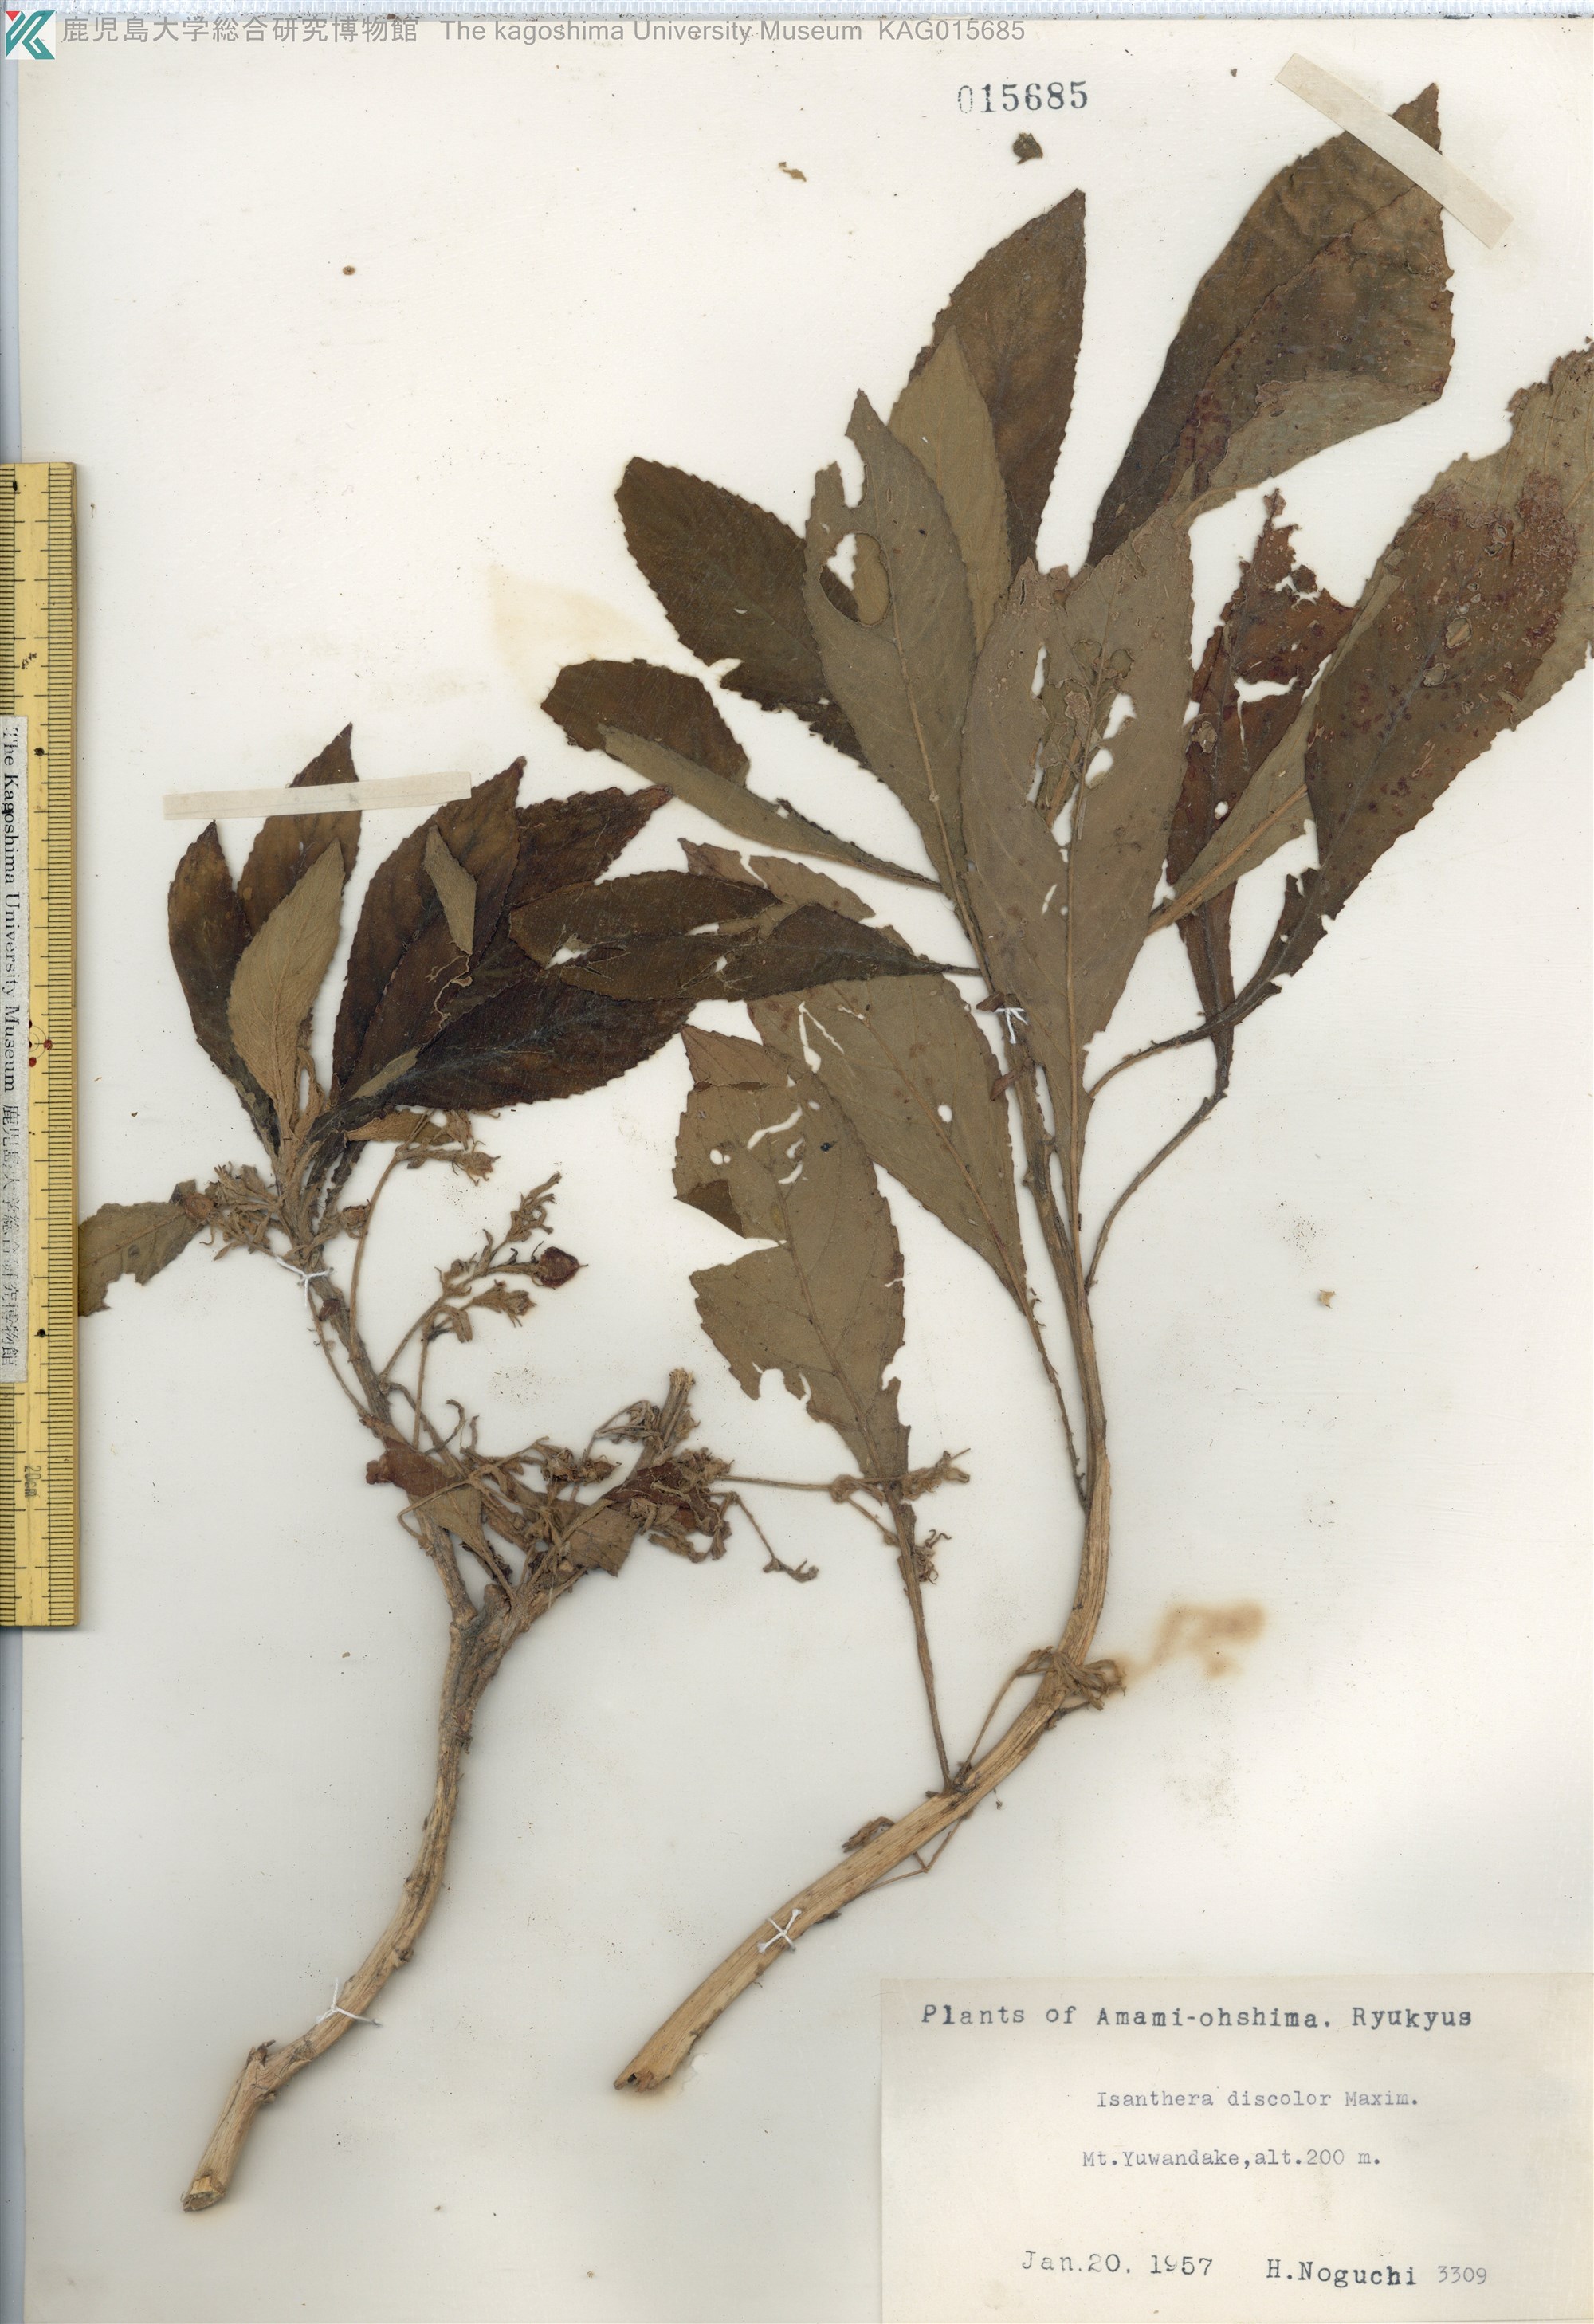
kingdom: Plantae
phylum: Tracheophyta
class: Magnoliopsida
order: Lamiales
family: Gesneriaceae
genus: Rhynchotechum
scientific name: Rhynchotechum discolor
